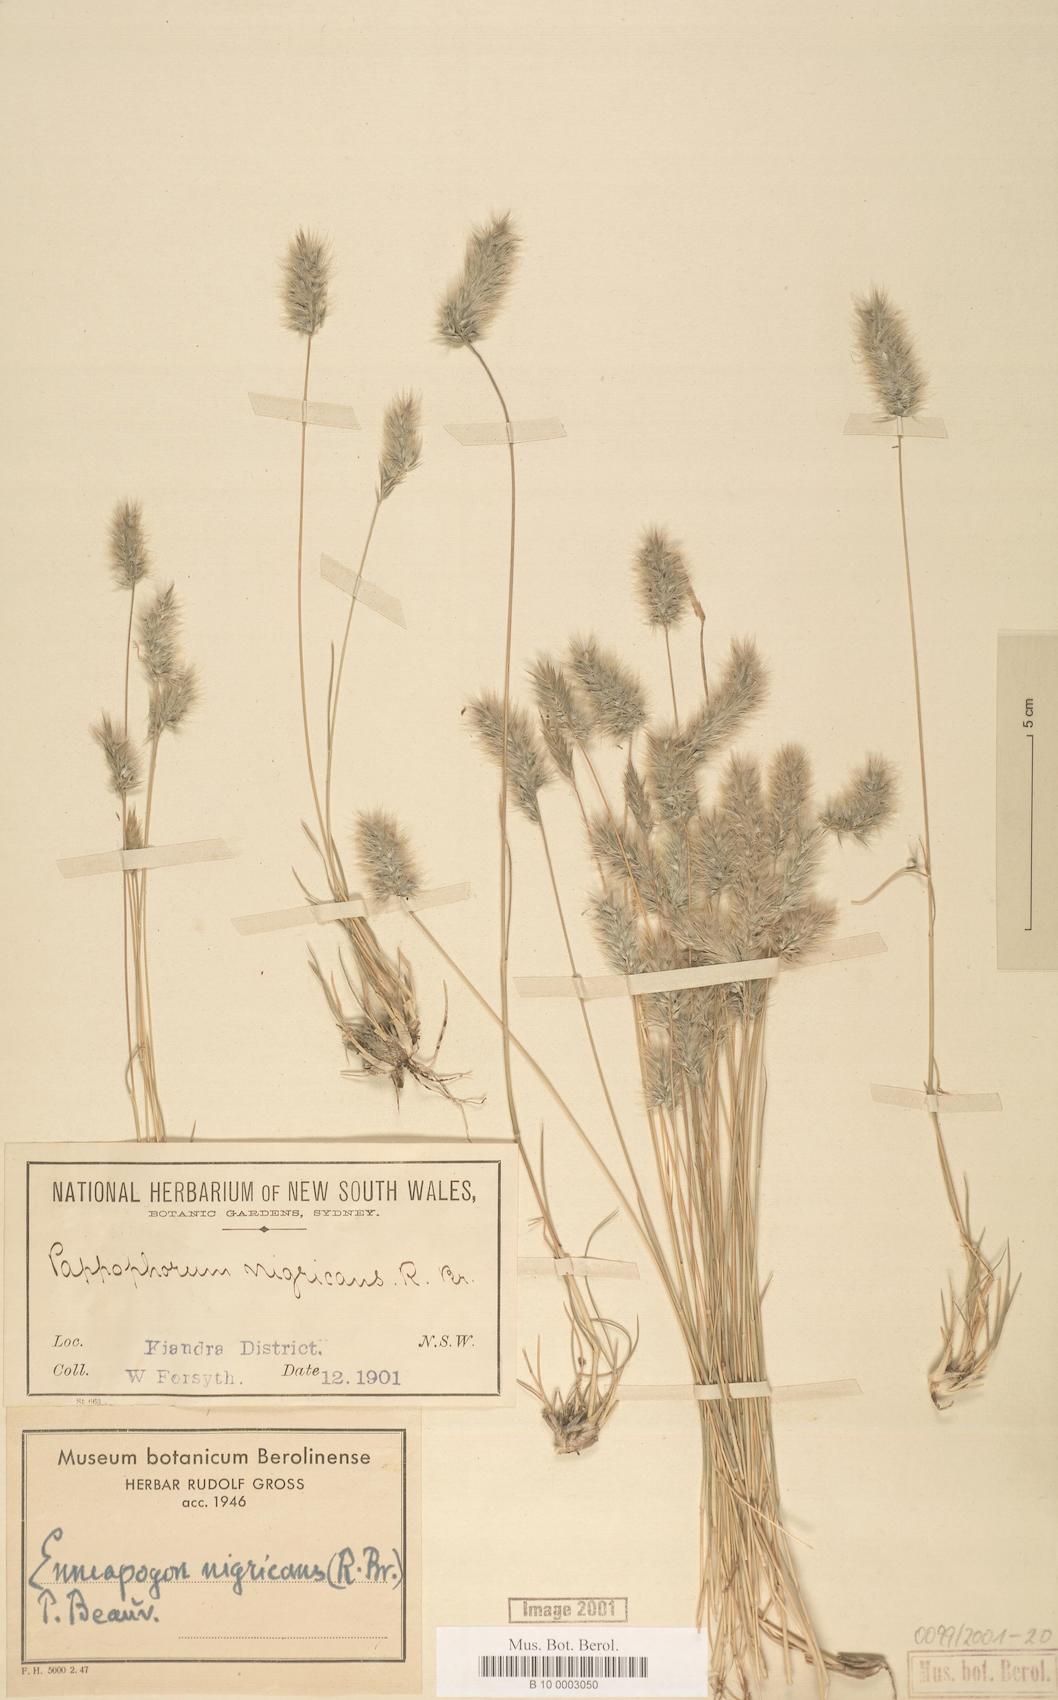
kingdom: Plantae
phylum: Tracheophyta
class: Liliopsida
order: Poales
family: Poaceae
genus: Enneapogon
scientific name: Enneapogon nigricans
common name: Pappus grass
